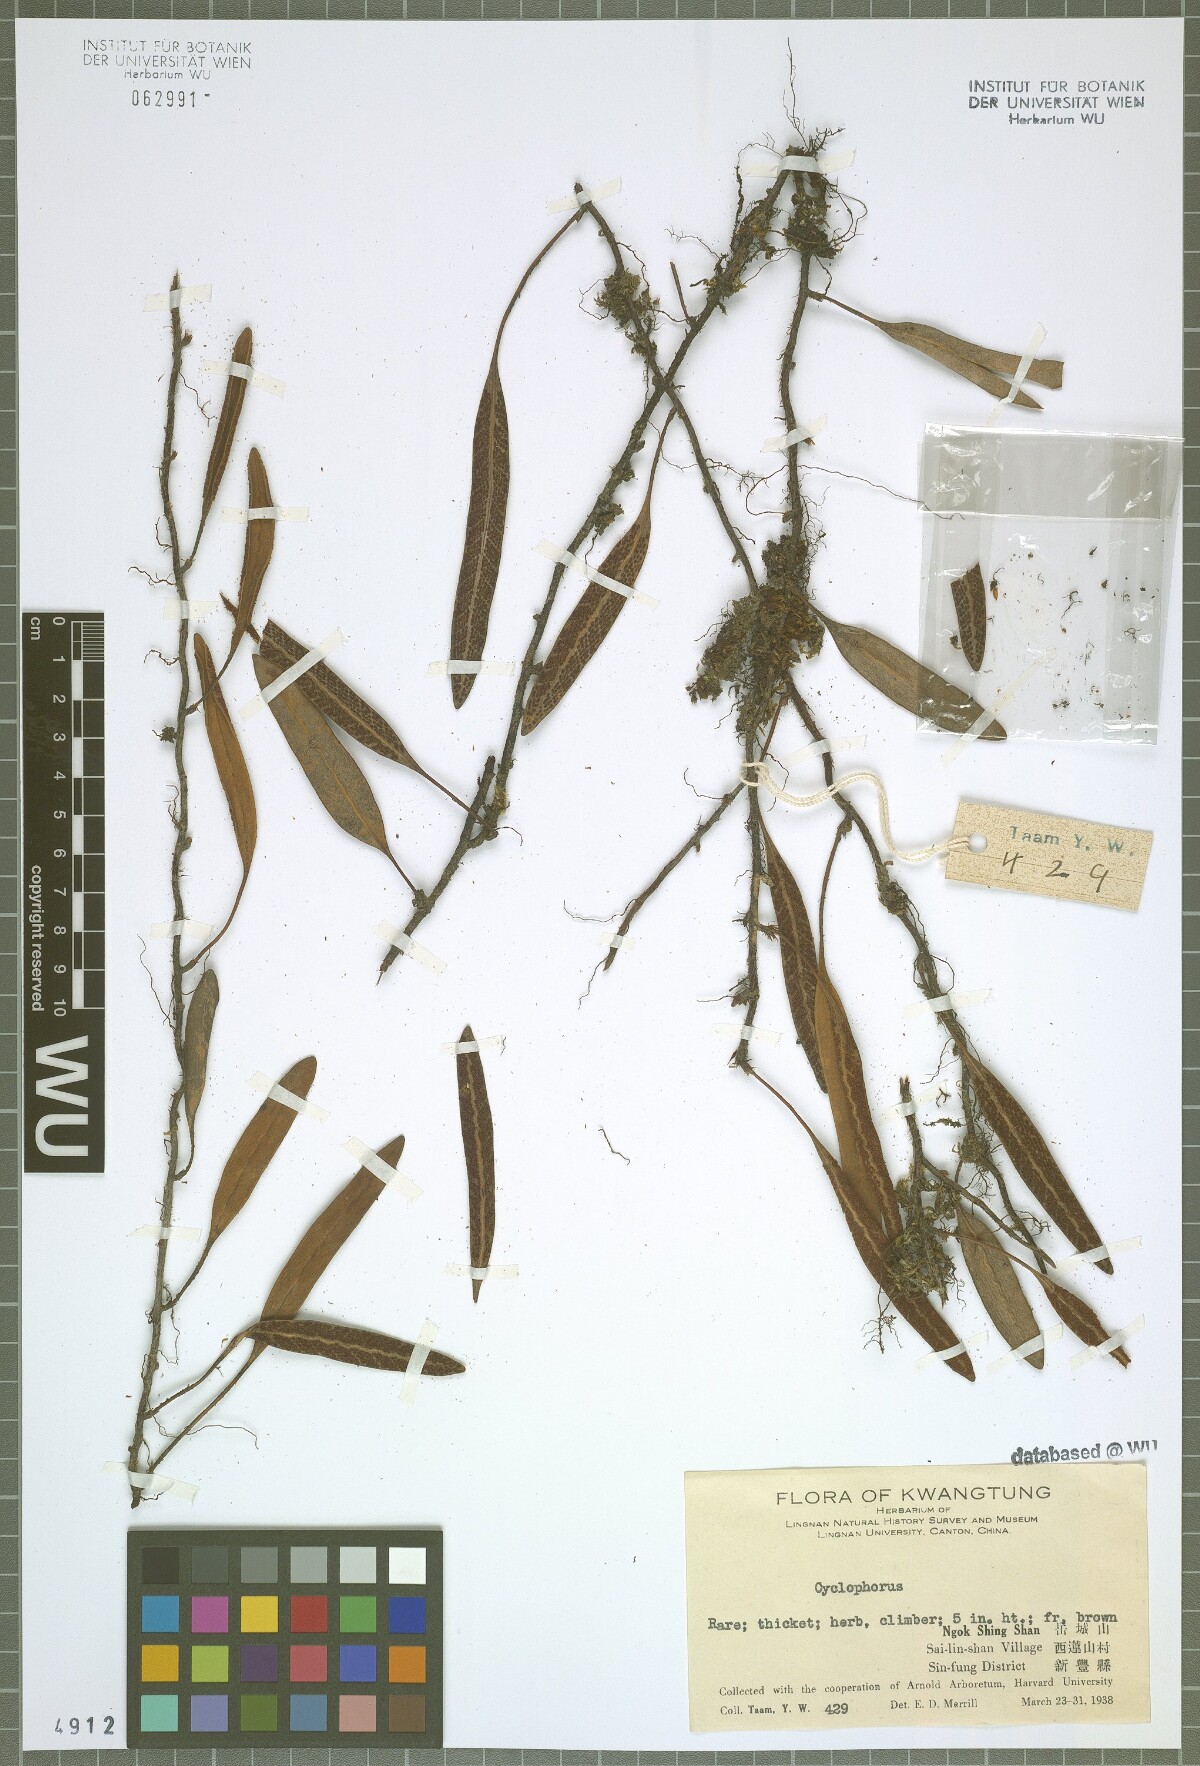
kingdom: Plantae
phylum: Tracheophyta
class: Polypodiopsida
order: Polypodiales
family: Polypodiaceae
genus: Pyrrosia
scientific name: Pyrrosia
